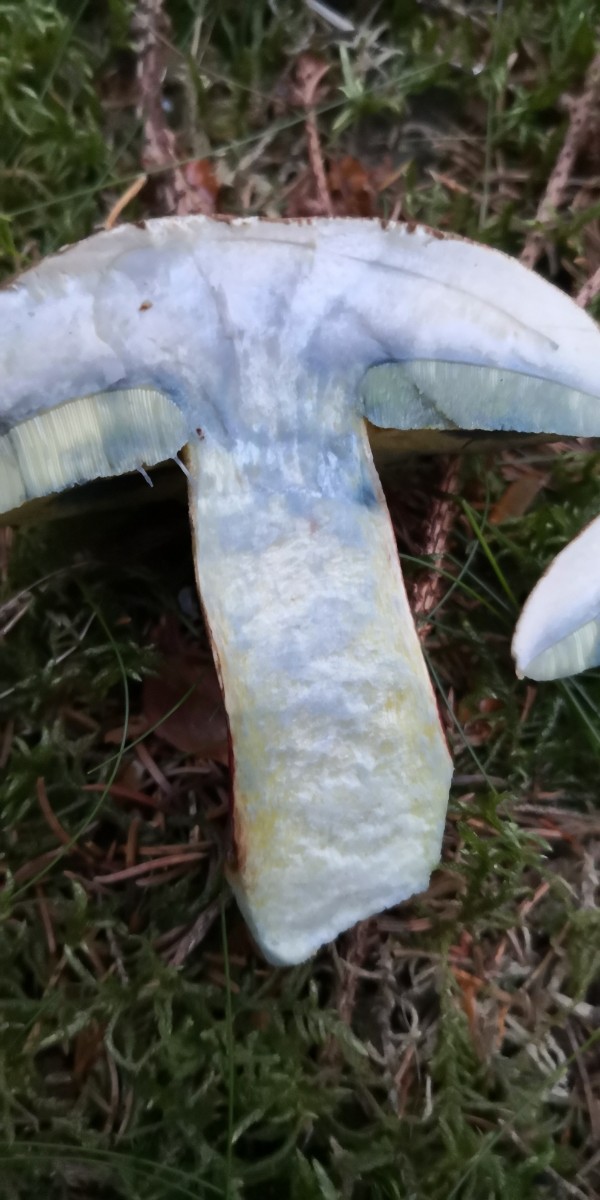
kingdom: Fungi
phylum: Basidiomycota
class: Agaricomycetes
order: Boletales
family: Boletaceae
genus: Caloboletus
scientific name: Caloboletus calopus
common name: skønfodet rørhat
